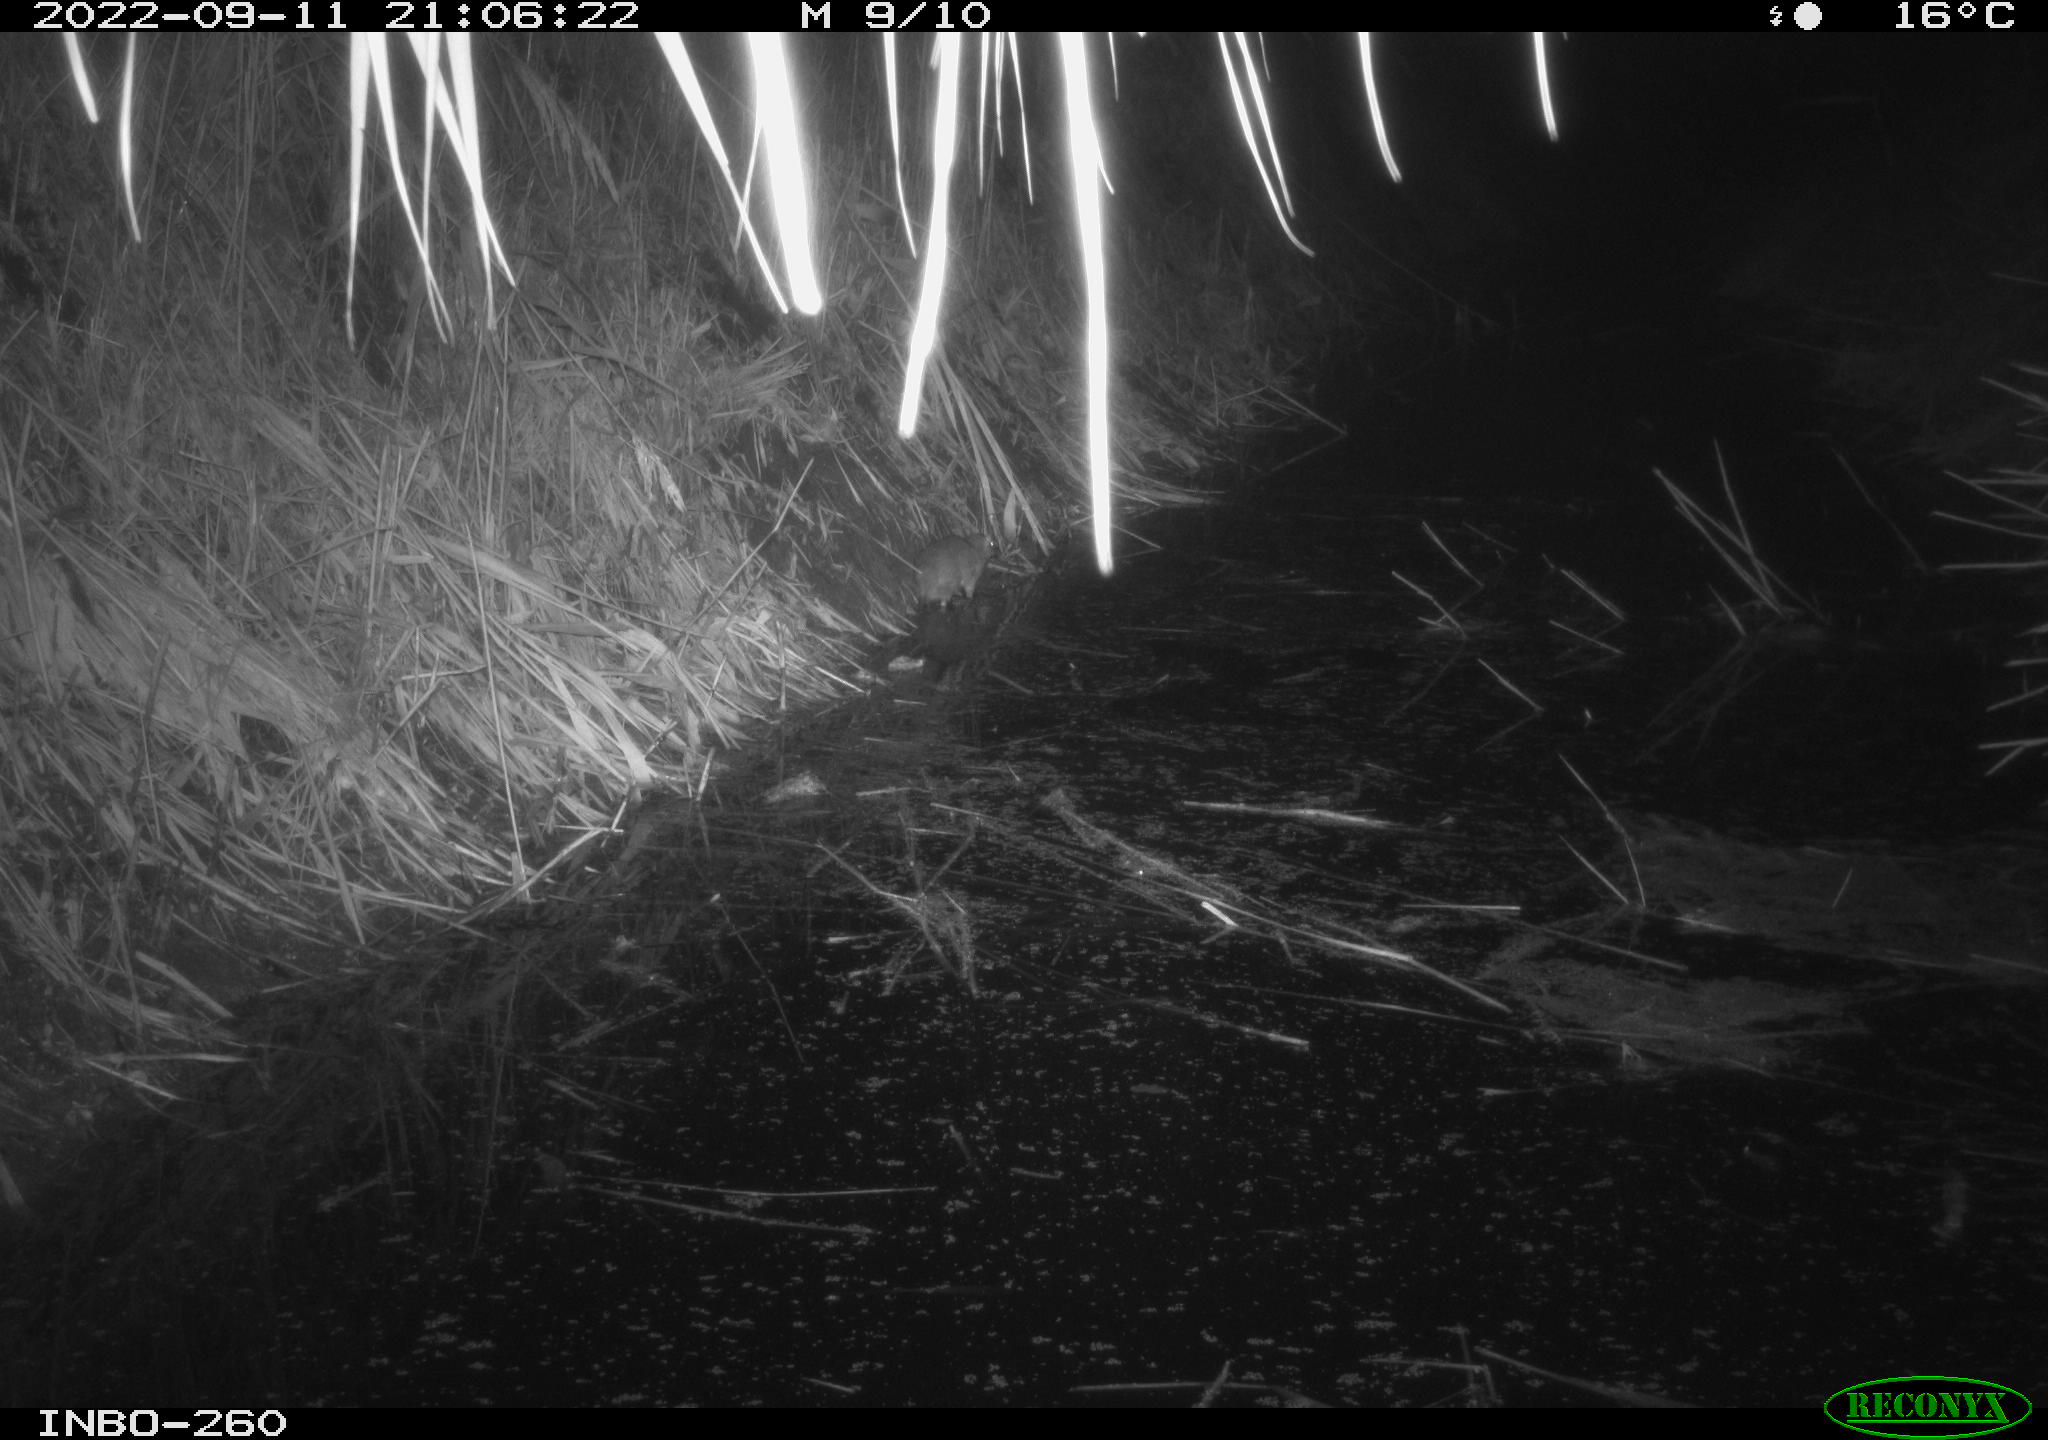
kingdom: Animalia
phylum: Chordata
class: Mammalia
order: Rodentia
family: Muridae
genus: Rattus
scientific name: Rattus norvegicus
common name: Brown rat
